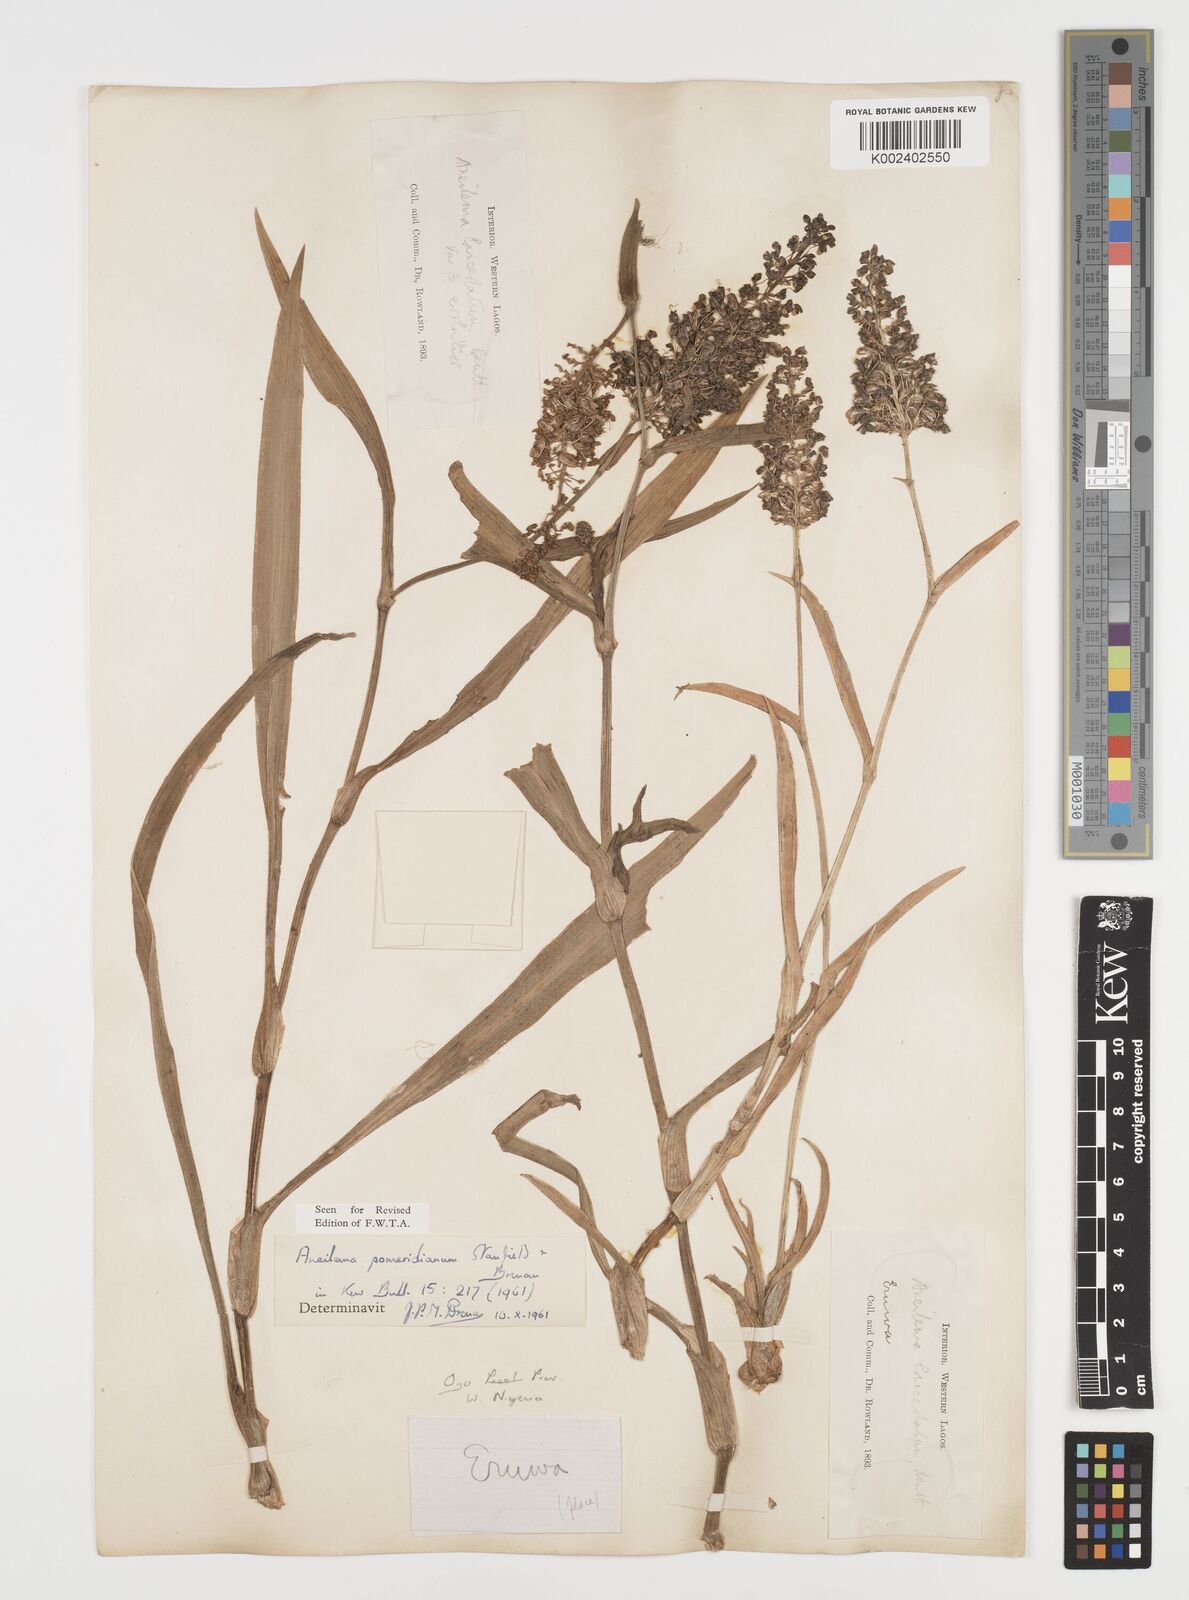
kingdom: Plantae
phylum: Tracheophyta
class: Liliopsida
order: Commelinales
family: Commelinaceae
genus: Aneilema
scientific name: Aneilema pomeridianum
